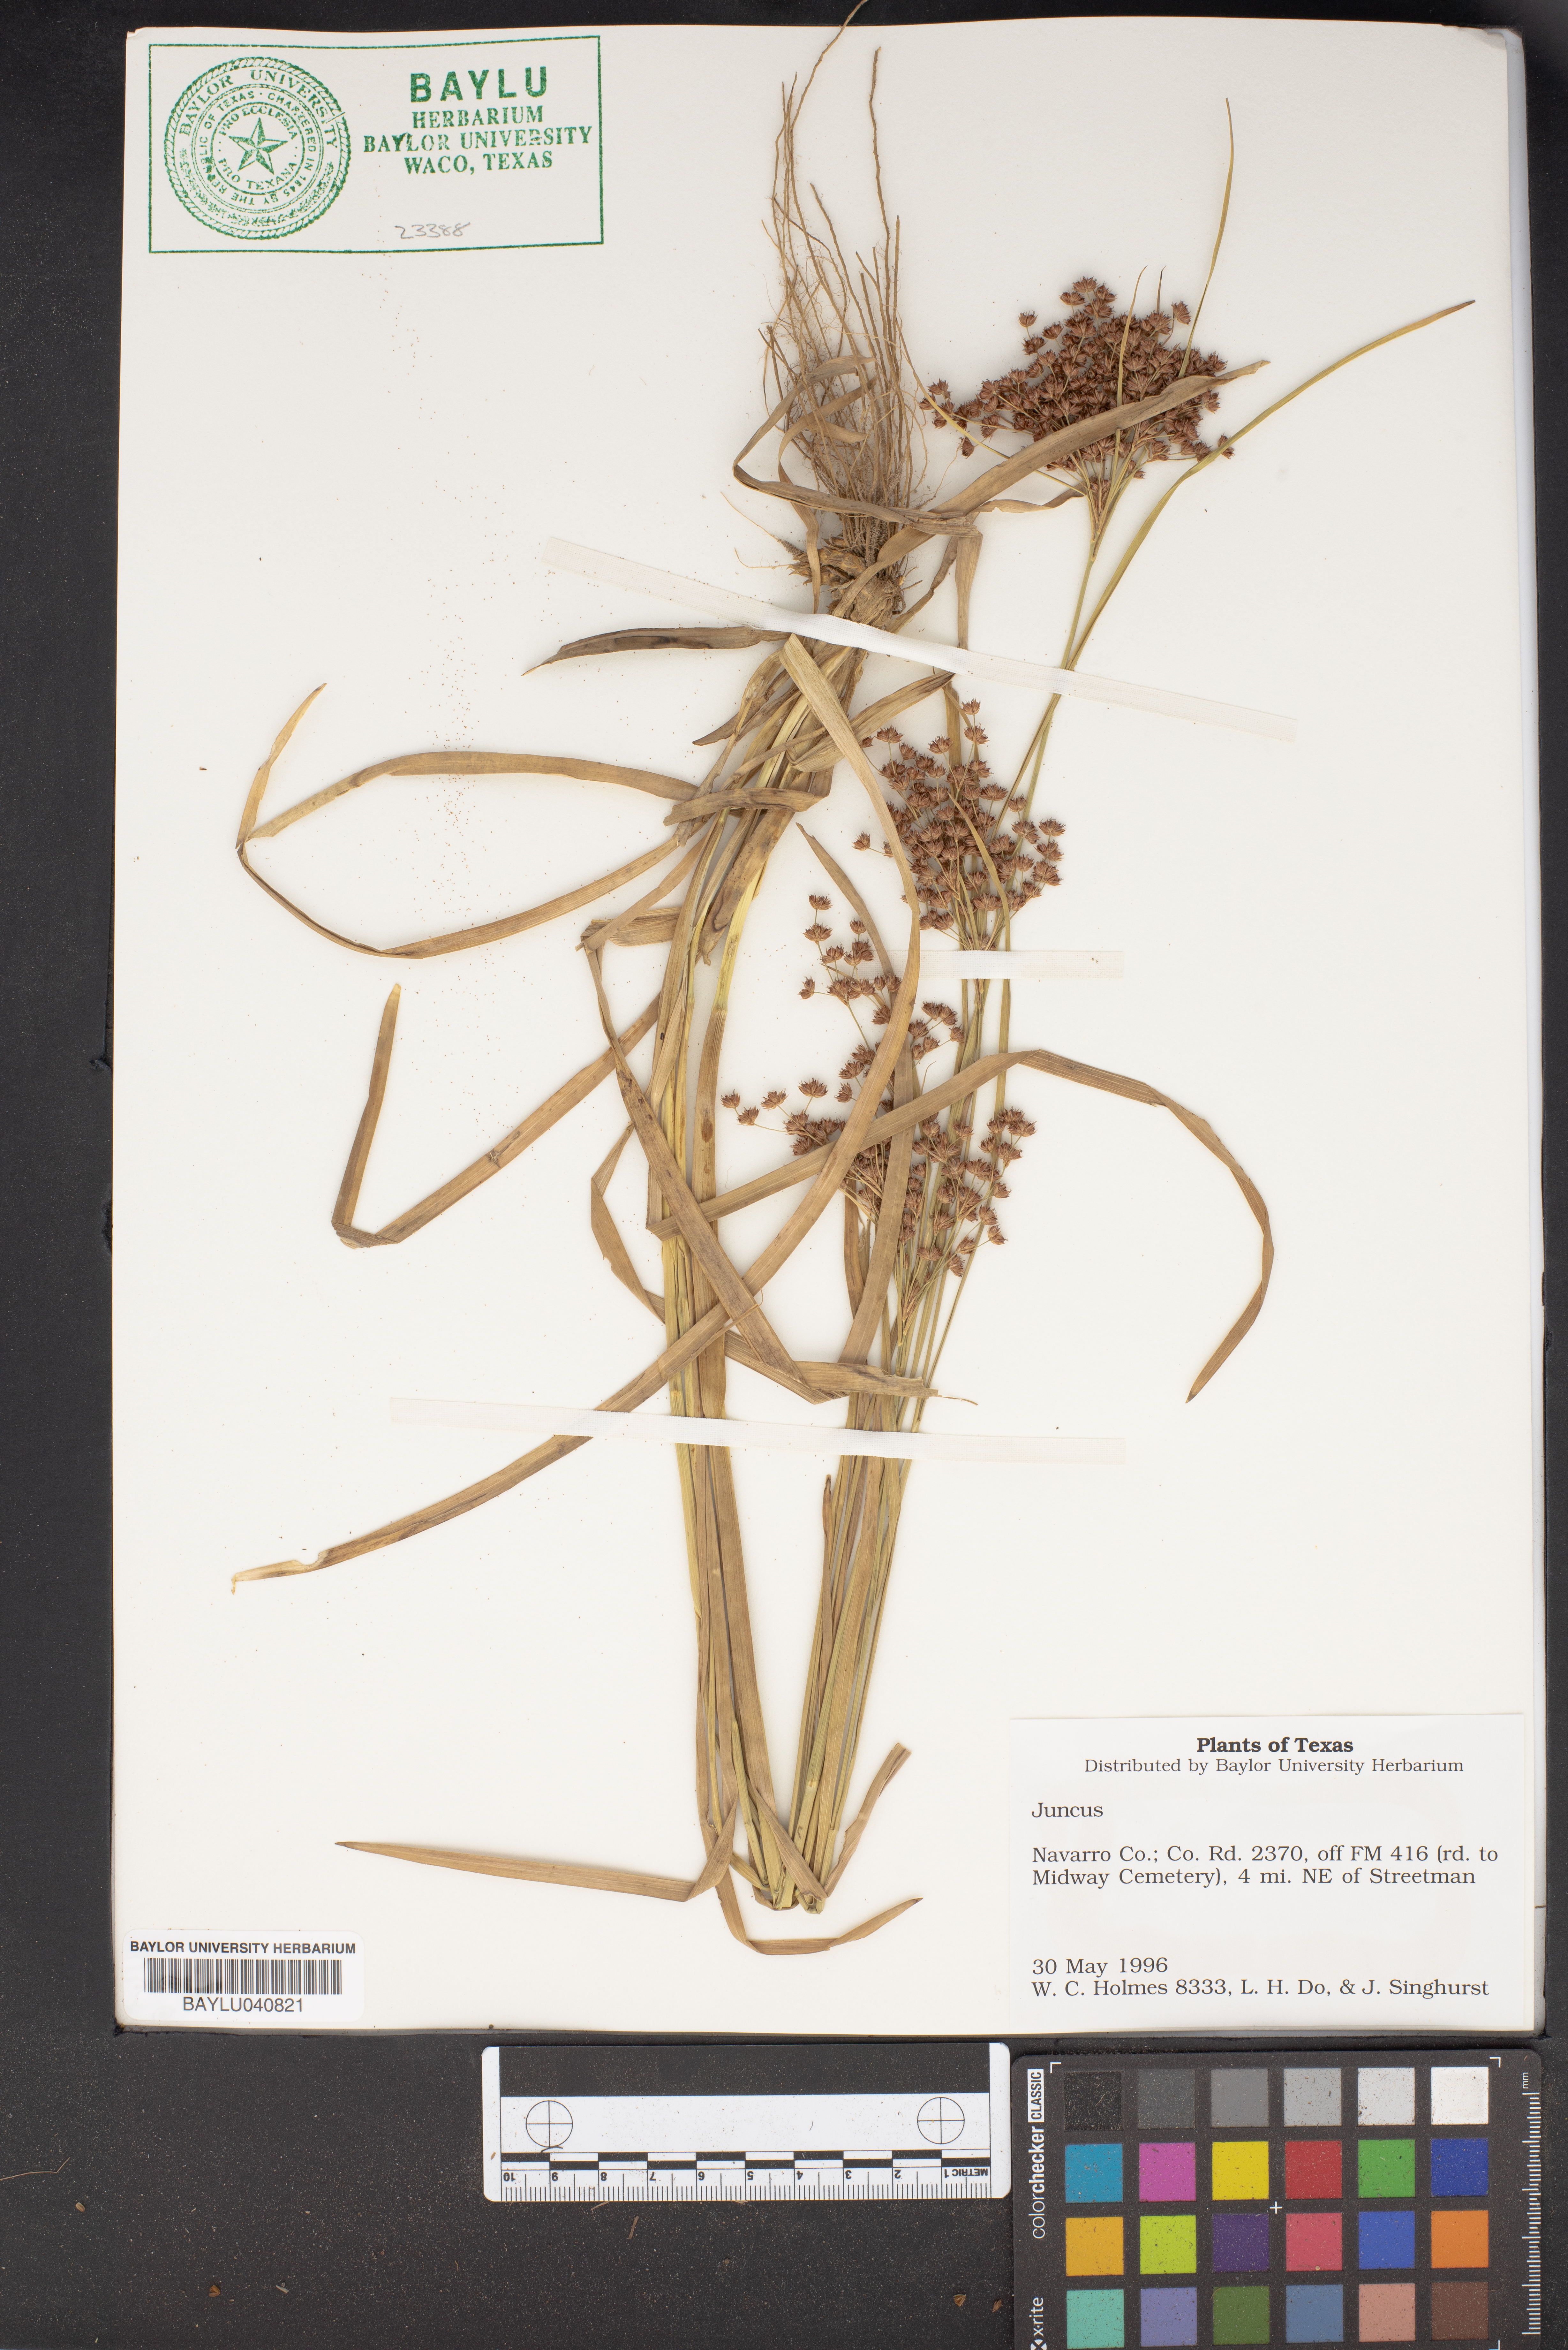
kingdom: Plantae
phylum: Tracheophyta
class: Liliopsida
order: Poales
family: Juncaceae
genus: Juncus
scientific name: Juncus
